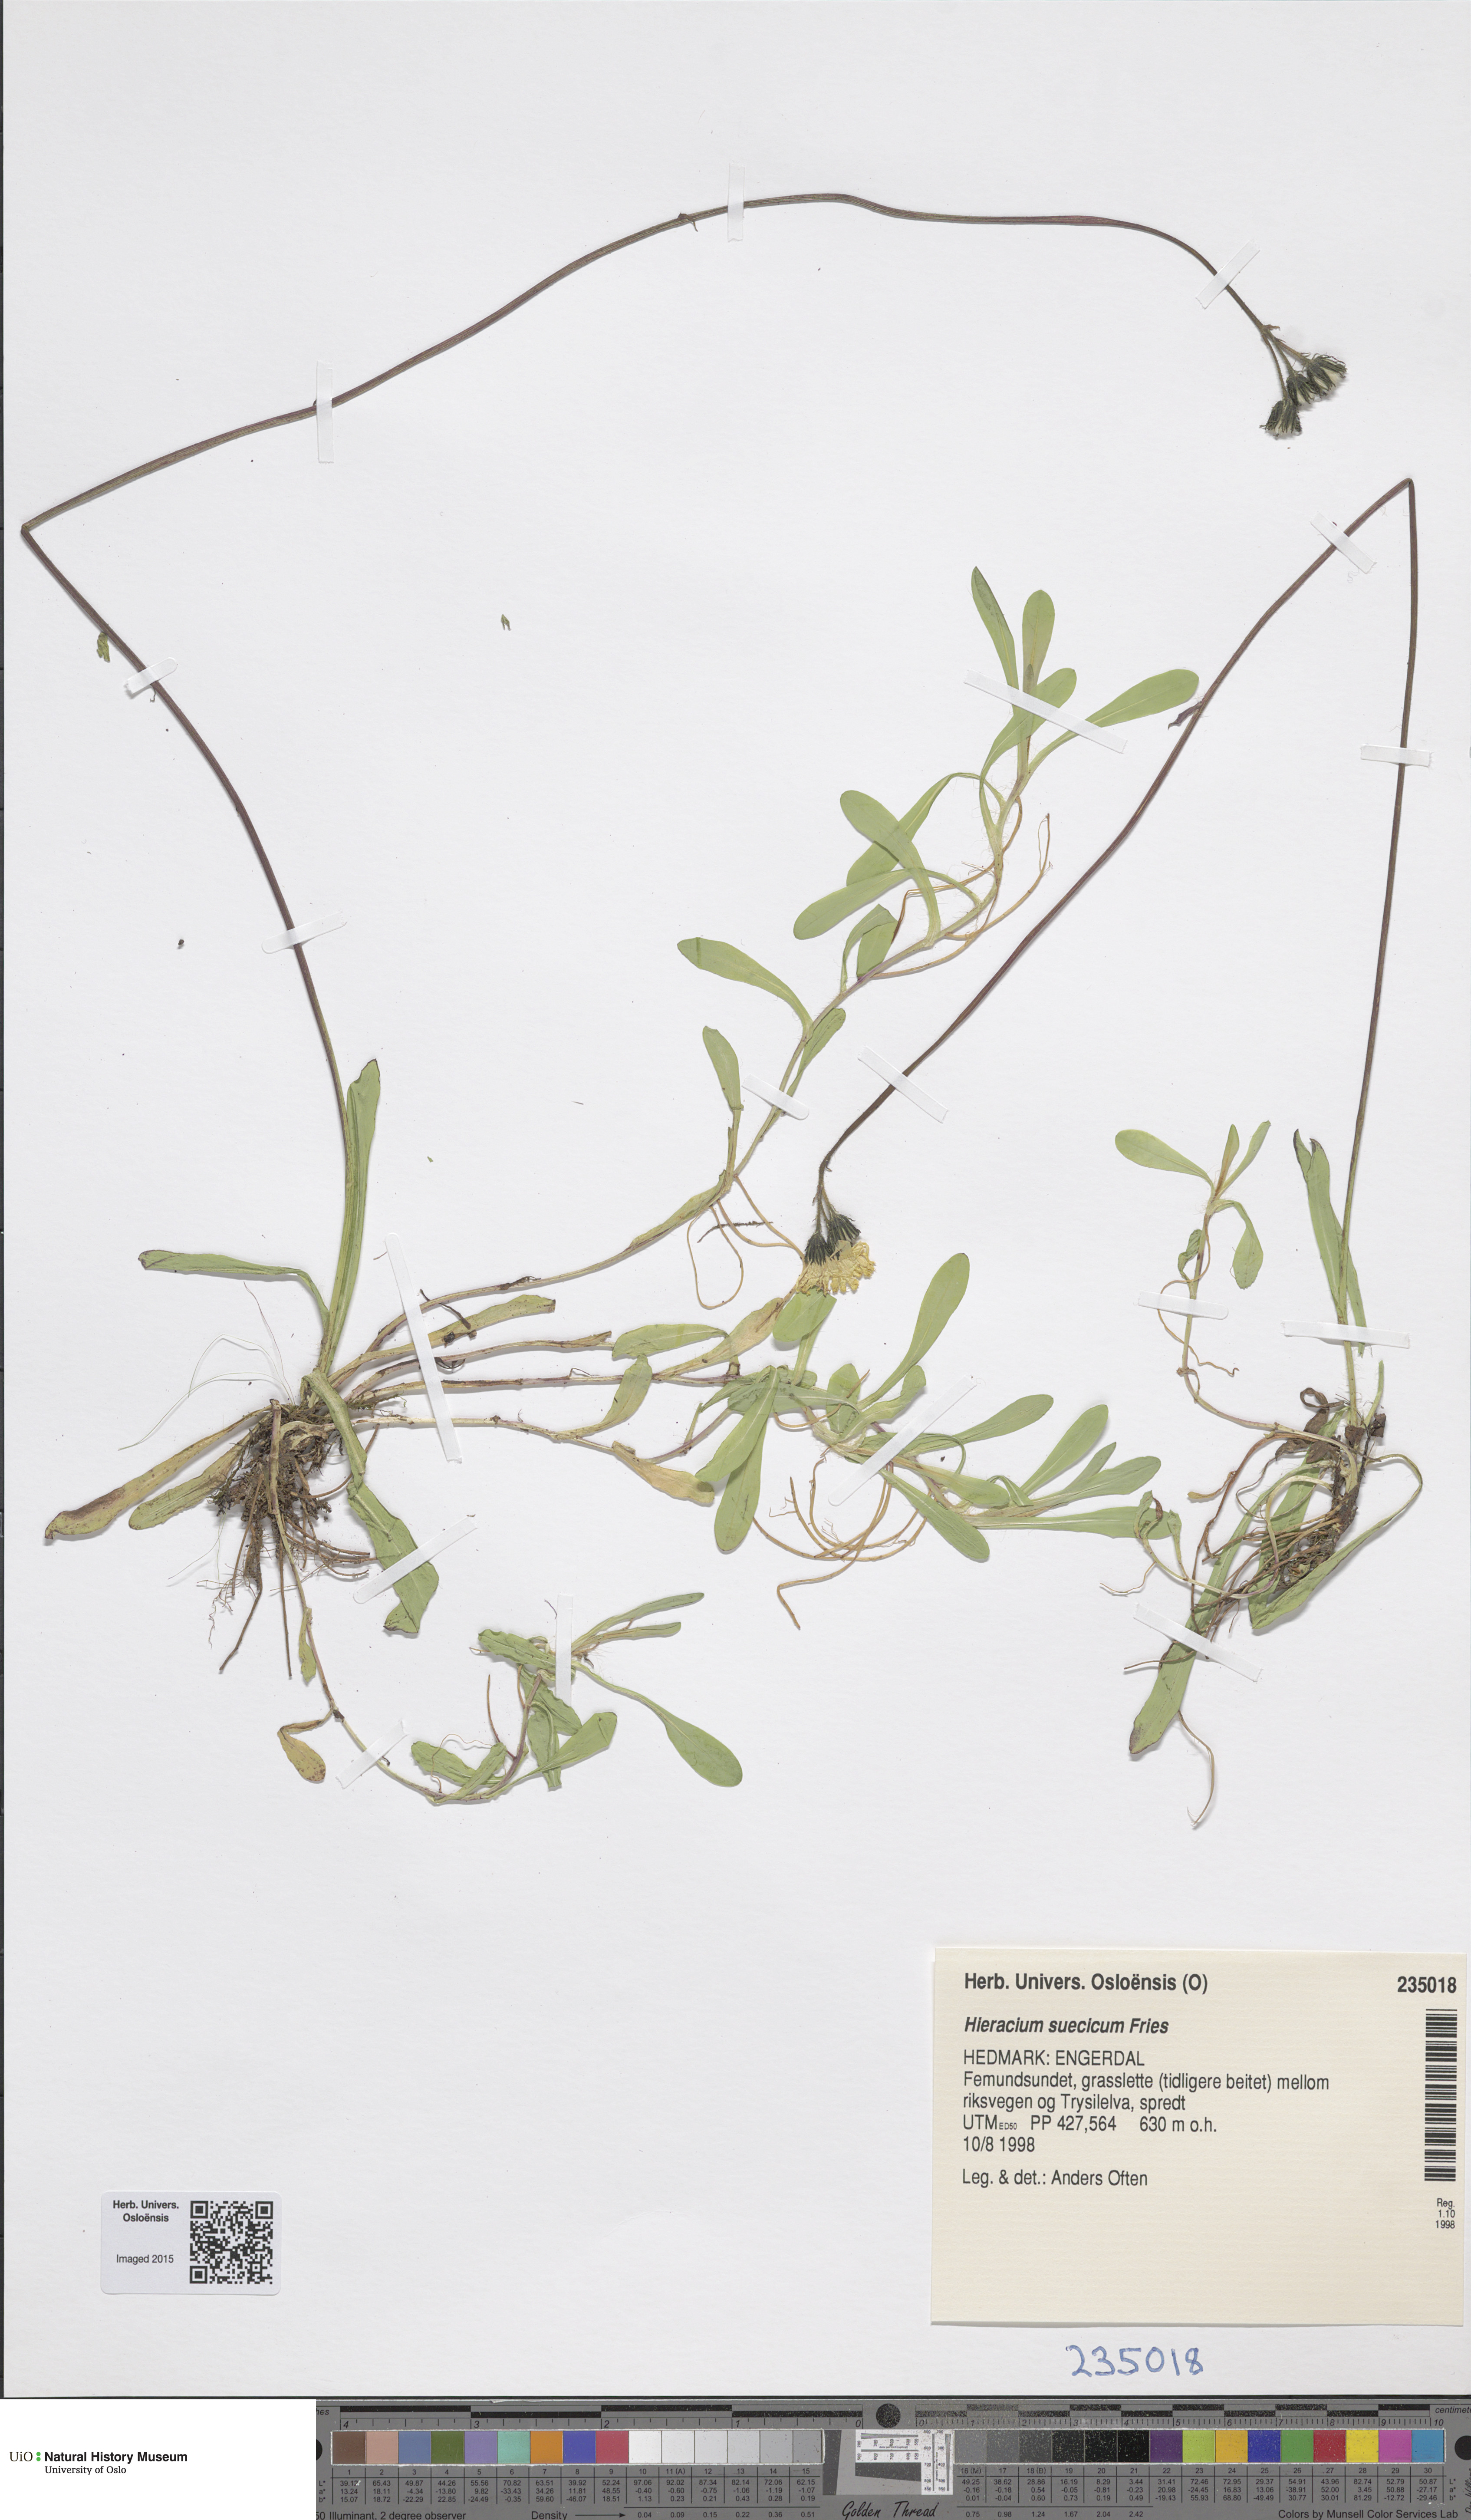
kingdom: Plantae
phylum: Tracheophyta
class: Magnoliopsida
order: Asterales
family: Asteraceae
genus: Pilosella
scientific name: Pilosella dubia
